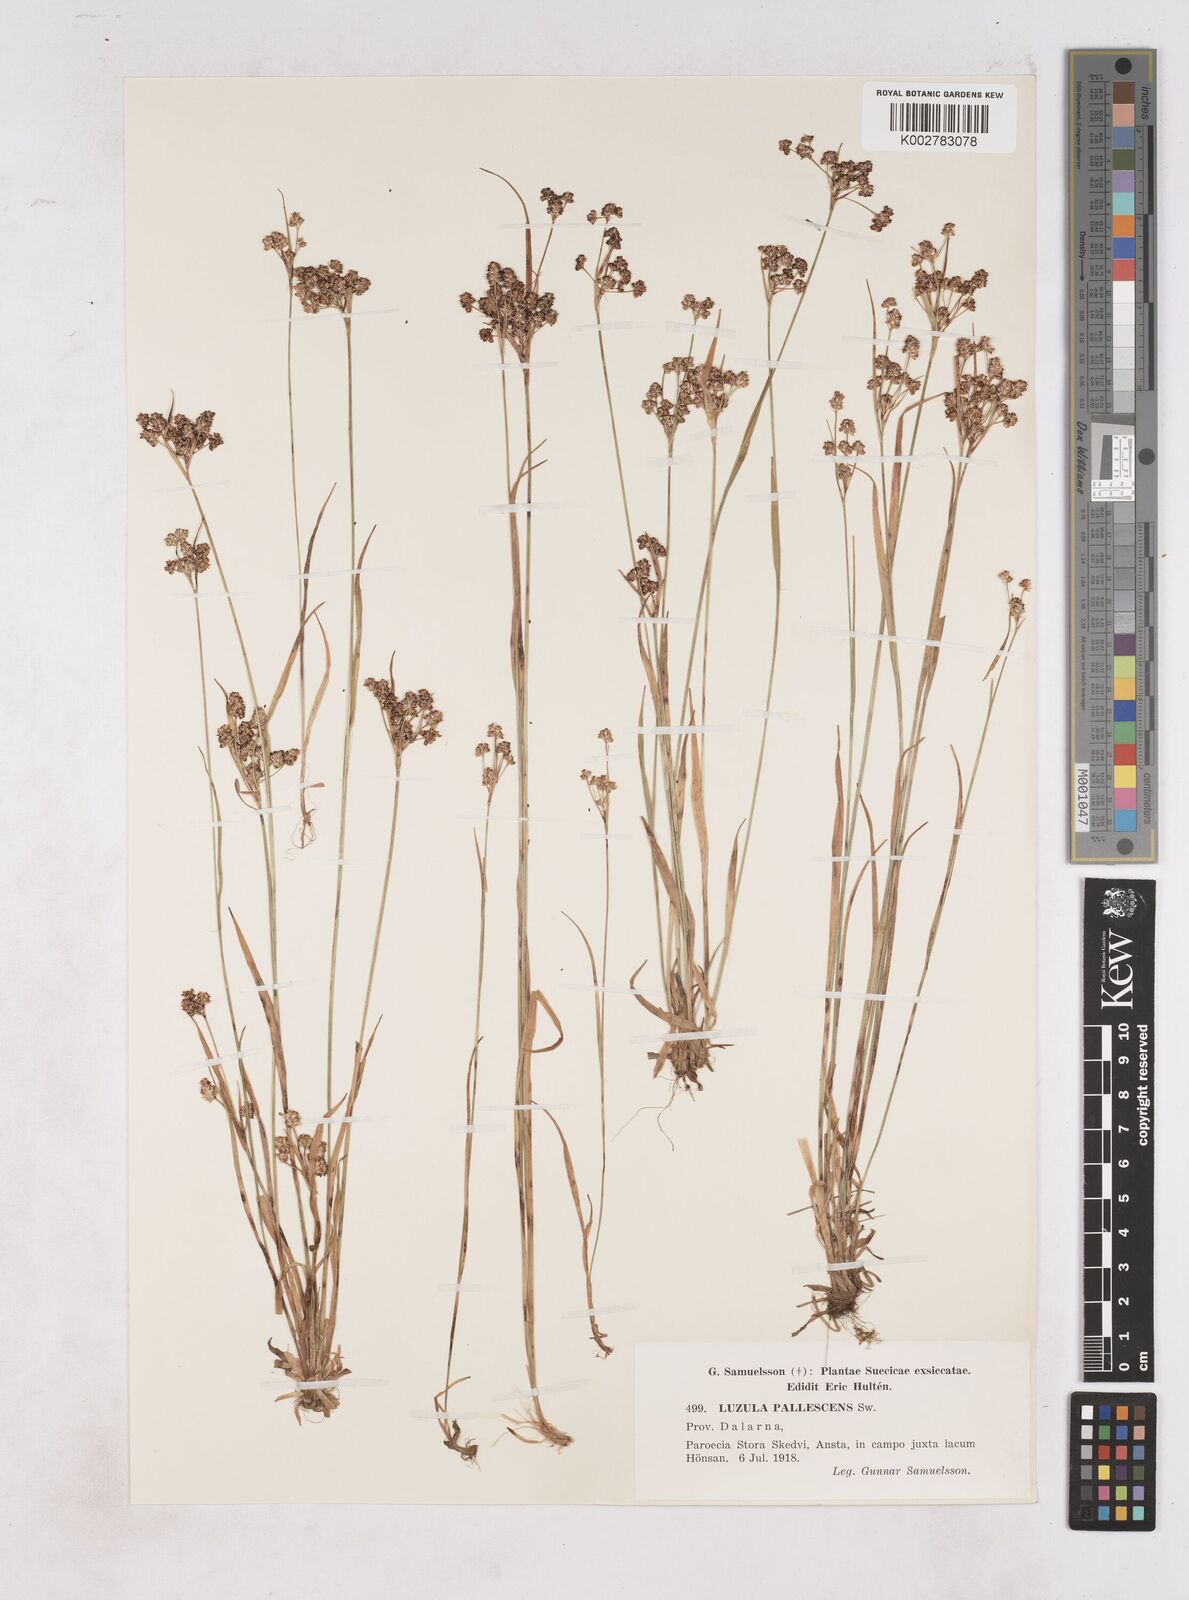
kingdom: Plantae
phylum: Tracheophyta
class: Liliopsida
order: Poales
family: Juncaceae
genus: Luzula
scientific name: Luzula pallescens
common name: Fen wood-rush
